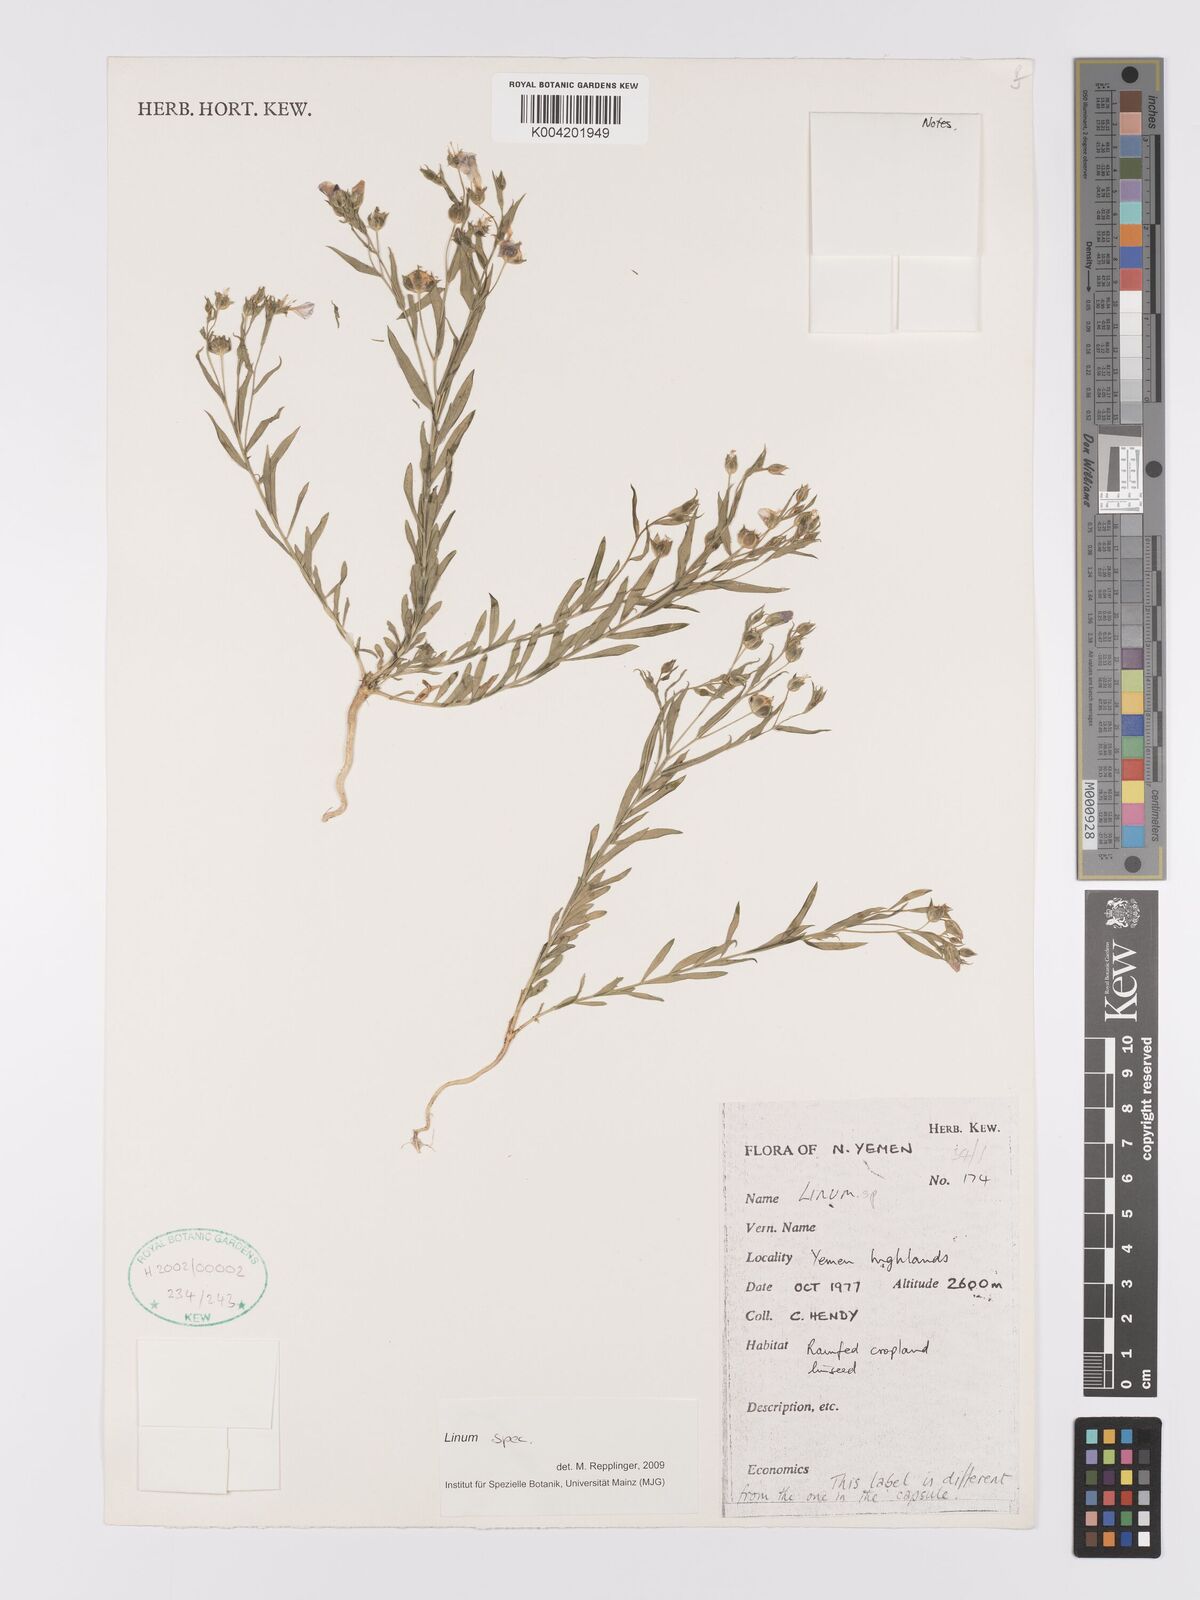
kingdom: Plantae
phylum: Tracheophyta
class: Magnoliopsida
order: Malpighiales
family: Linaceae
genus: Linum
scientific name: Linum
